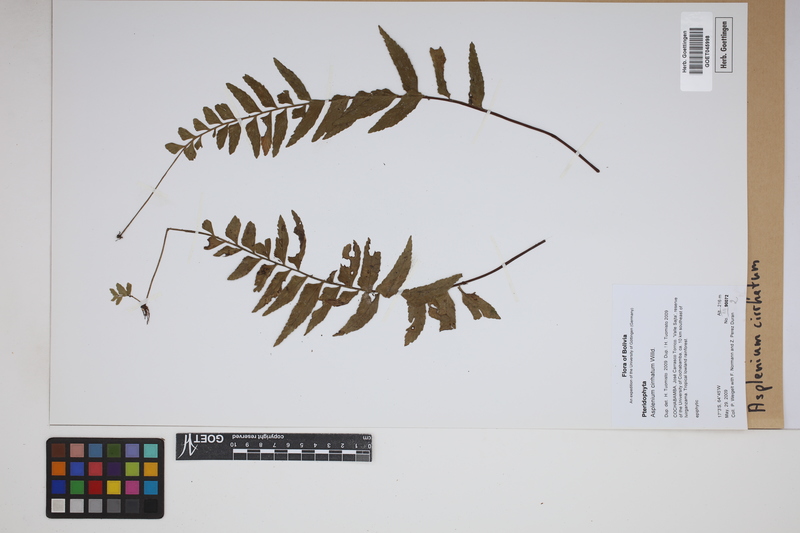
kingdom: Plantae
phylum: Tracheophyta
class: Polypodiopsida
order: Polypodiales
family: Aspleniaceae
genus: Asplenium
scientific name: Asplenium cirrhatum
